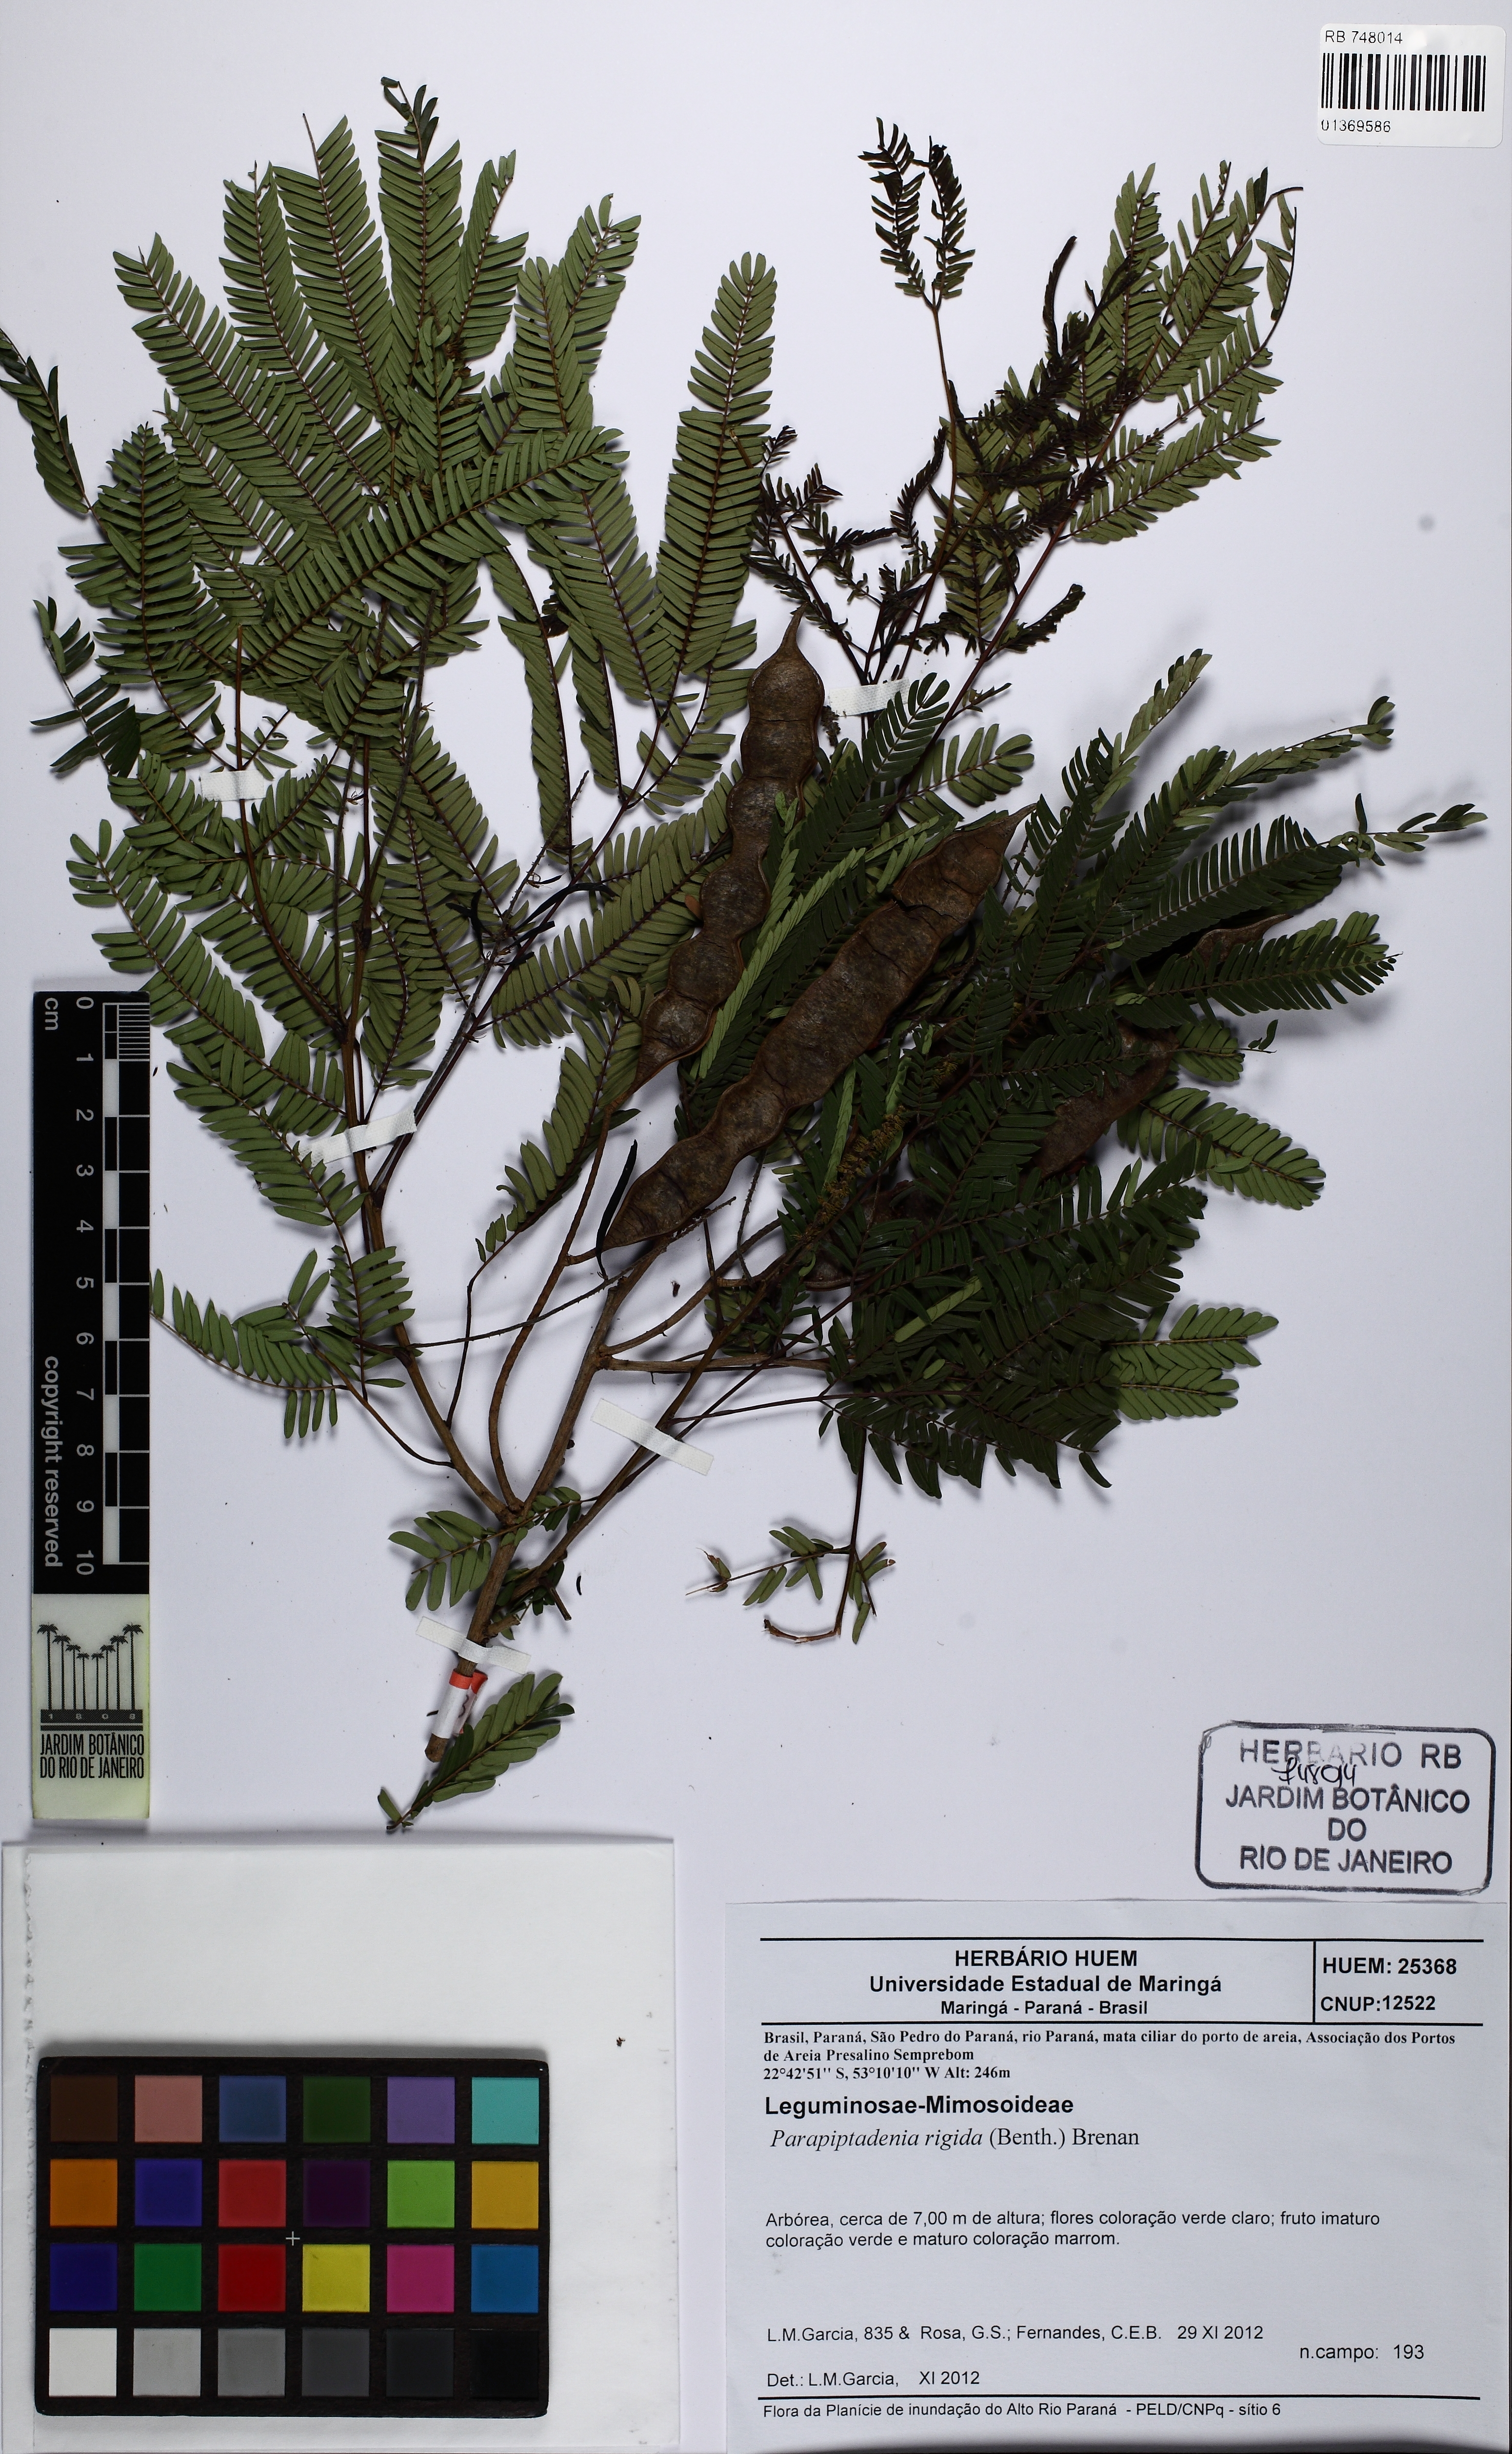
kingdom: Plantae
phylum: Tracheophyta
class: Magnoliopsida
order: Fabales
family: Fabaceae
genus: Parapiptadenia
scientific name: Parapiptadenia rigida
